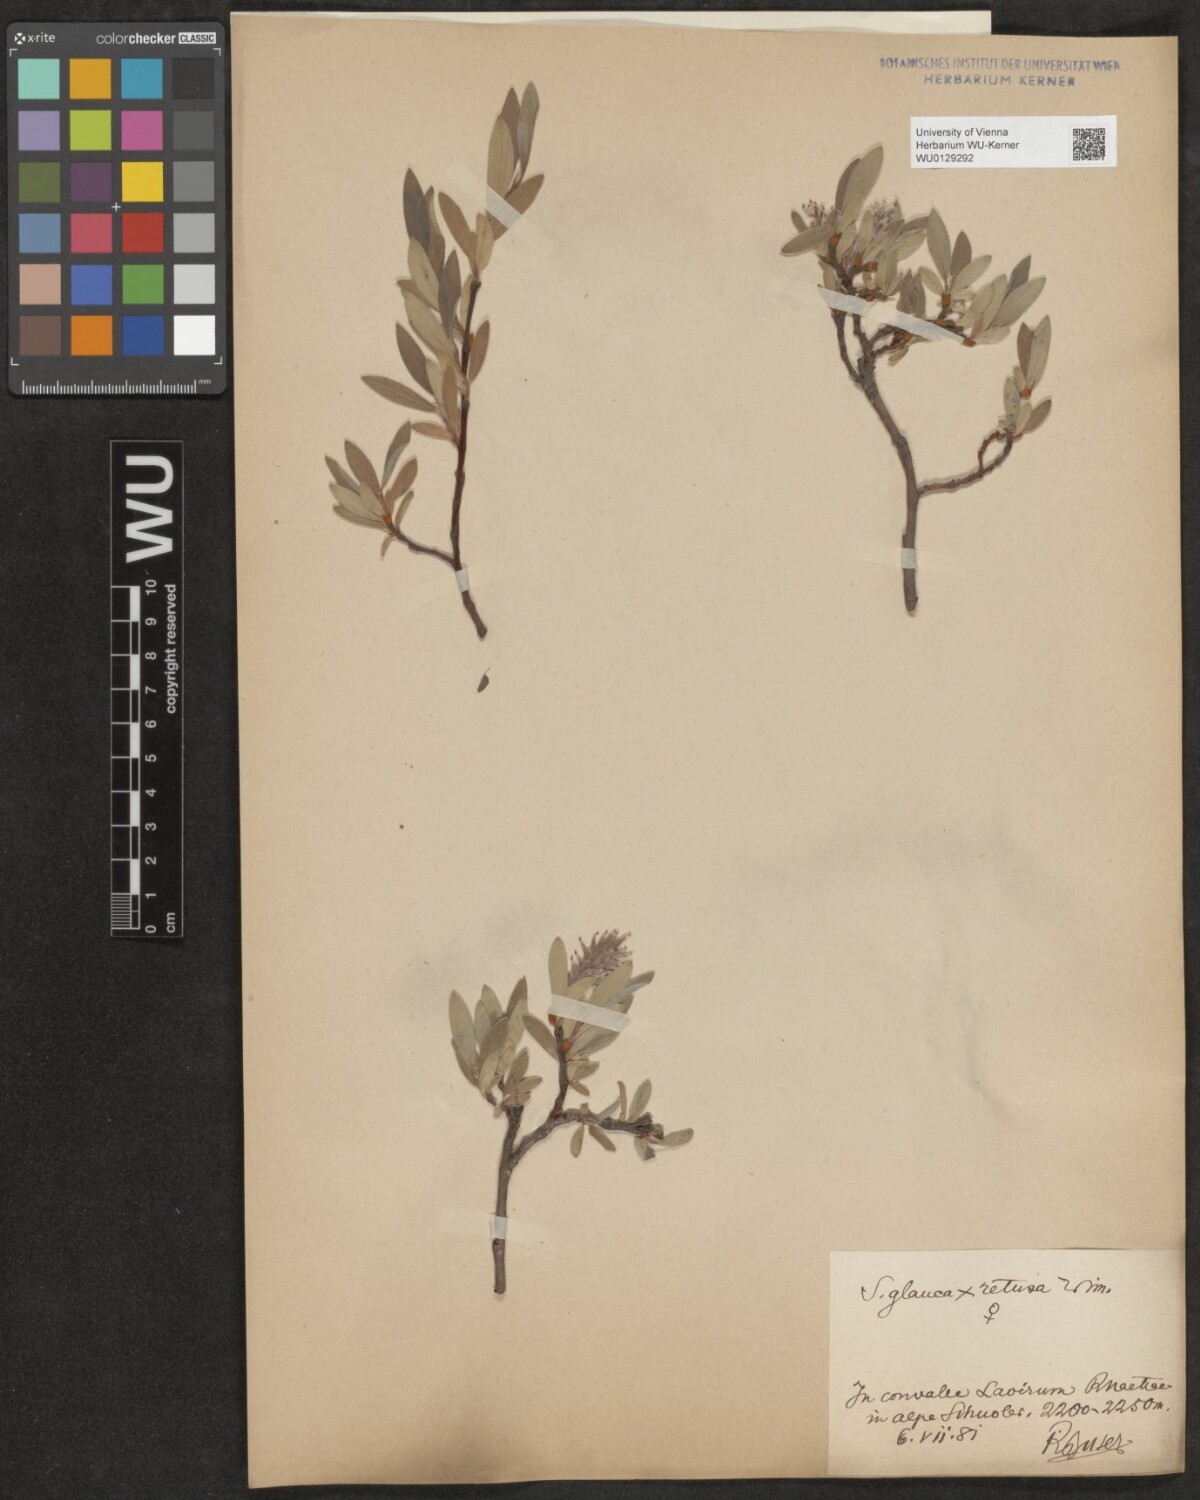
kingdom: Plantae
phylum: Tracheophyta
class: Magnoliopsida
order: Malpighiales
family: Salicaceae
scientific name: Salicaceae
